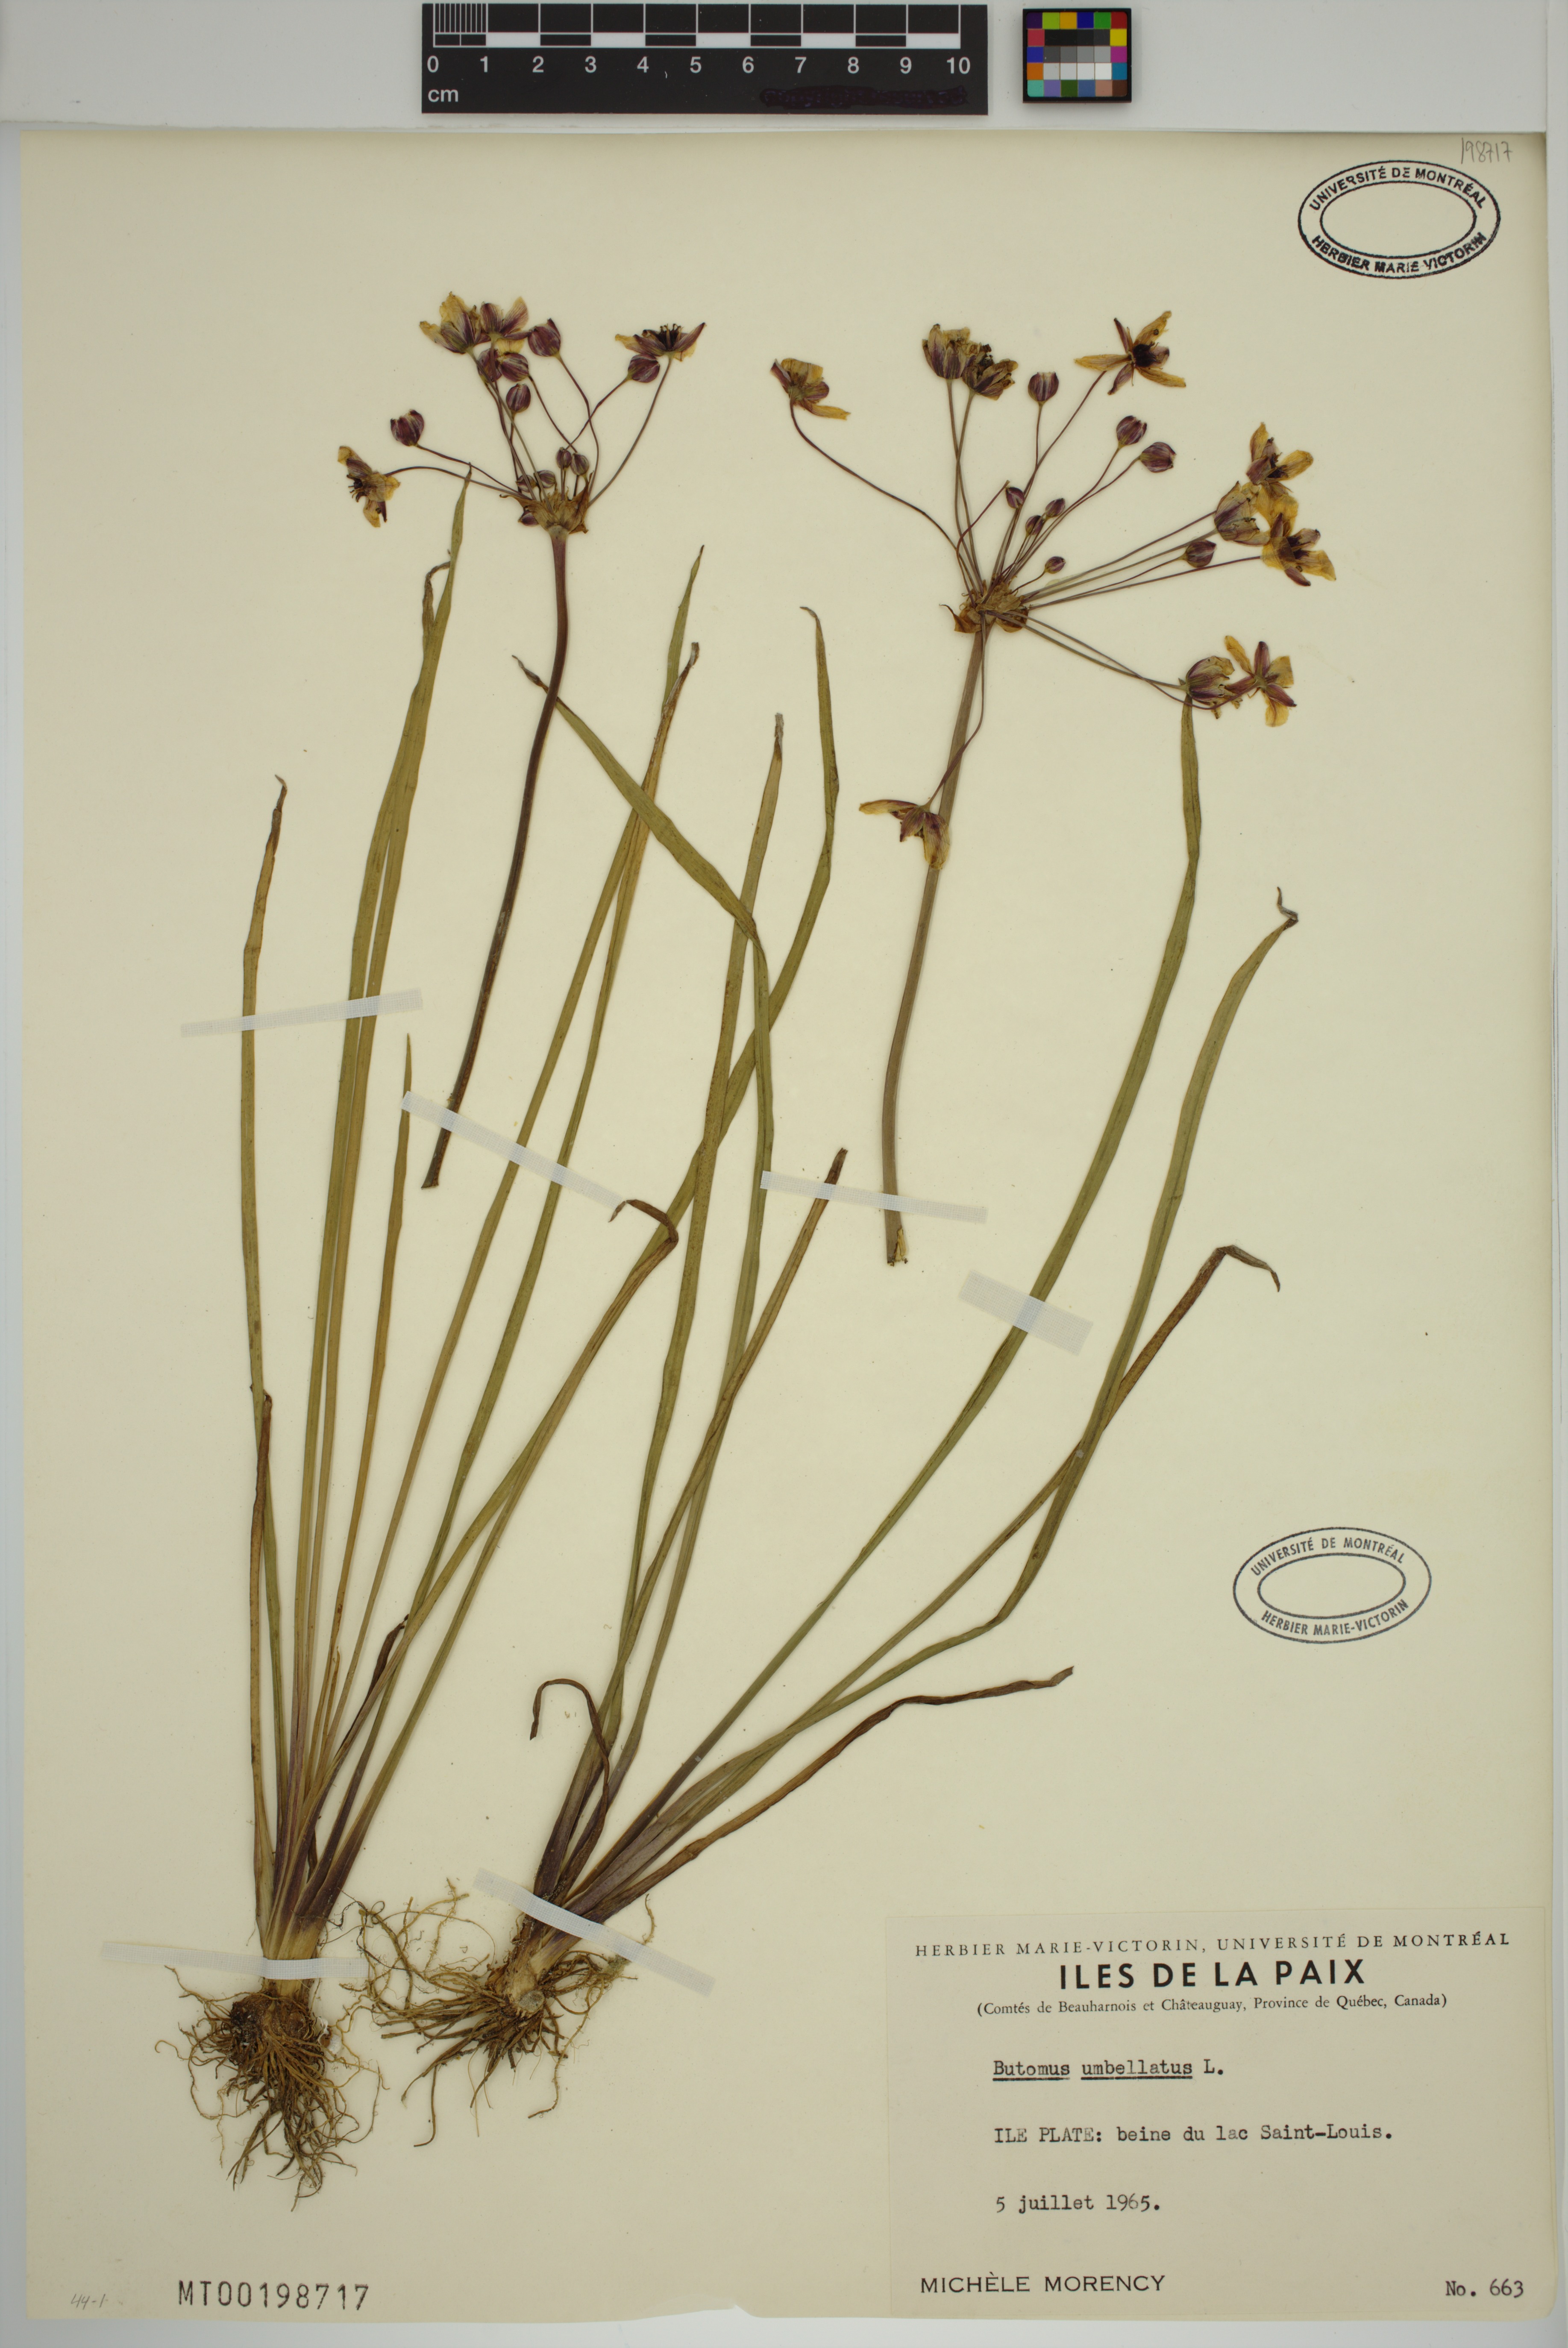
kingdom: Plantae
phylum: Tracheophyta
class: Liliopsida
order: Alismatales
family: Butomaceae
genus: Butomus
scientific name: Butomus umbellatus
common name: Flowering-rush
